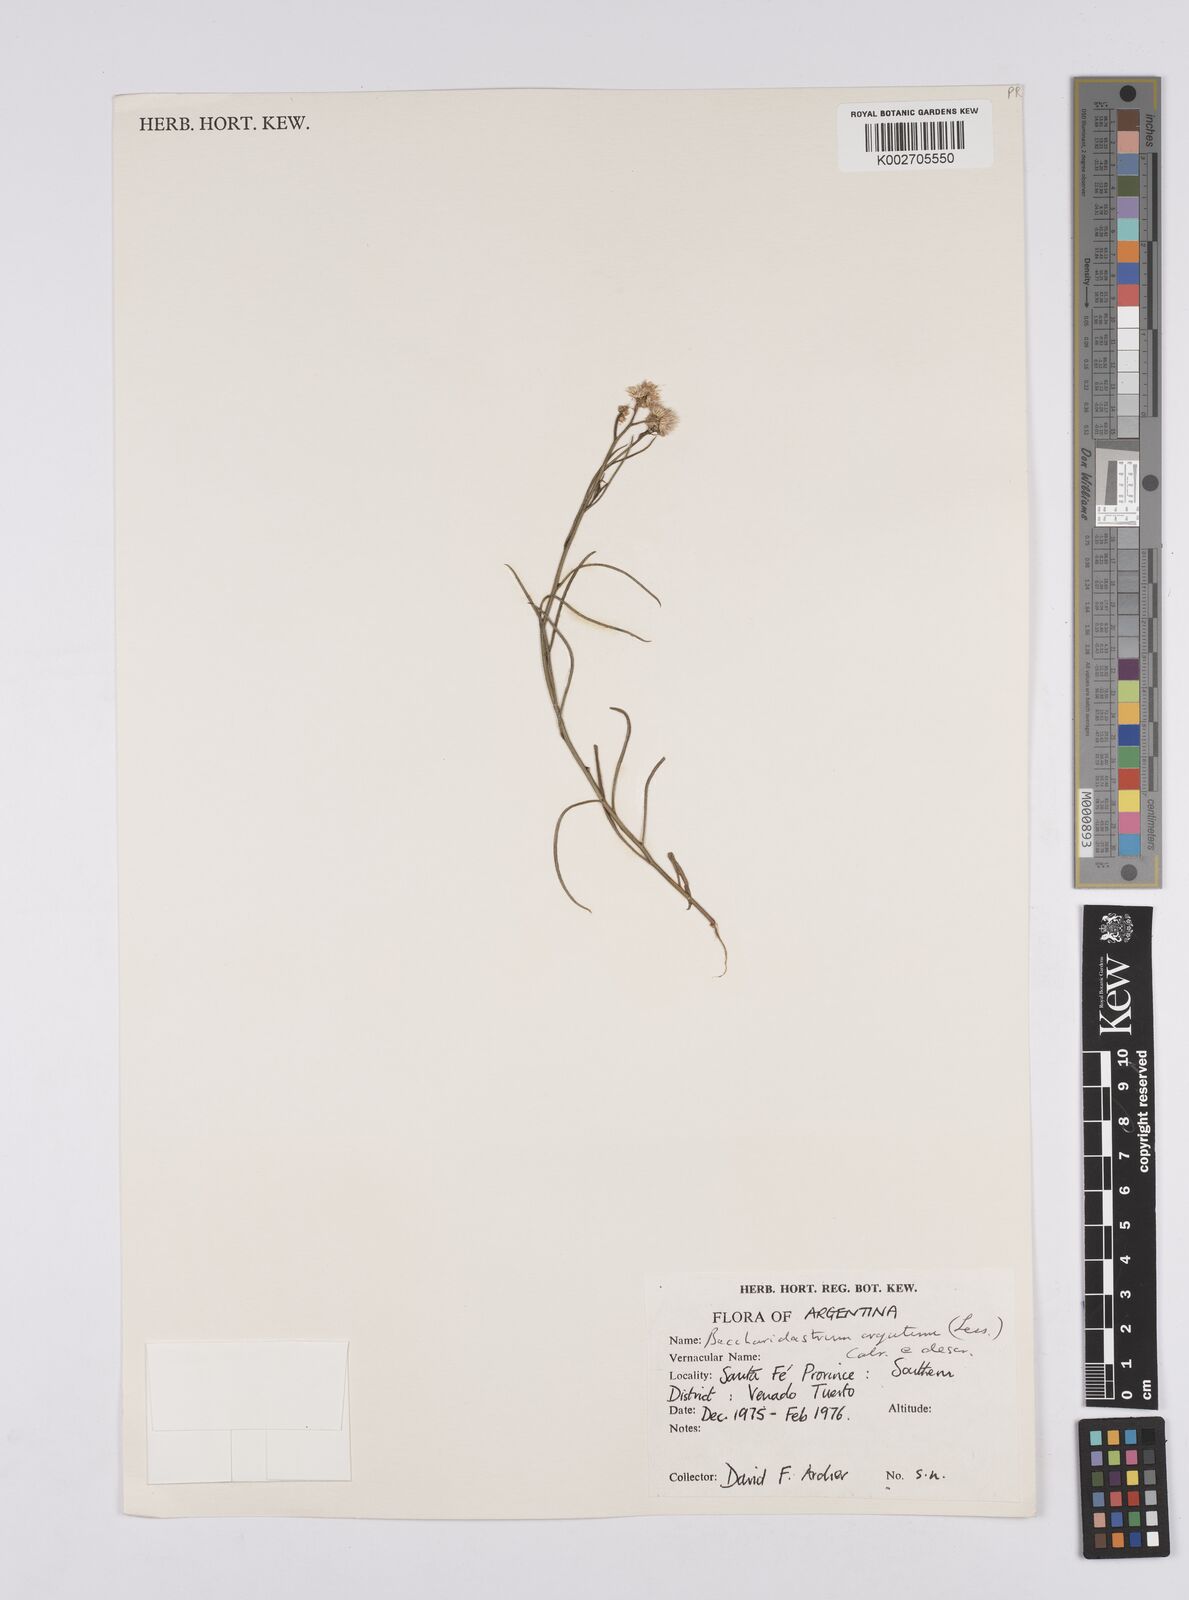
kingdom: Plantae
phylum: Tracheophyta
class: Magnoliopsida
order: Asterales
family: Asteraceae
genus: Baccharis
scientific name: Baccharis breviseta
